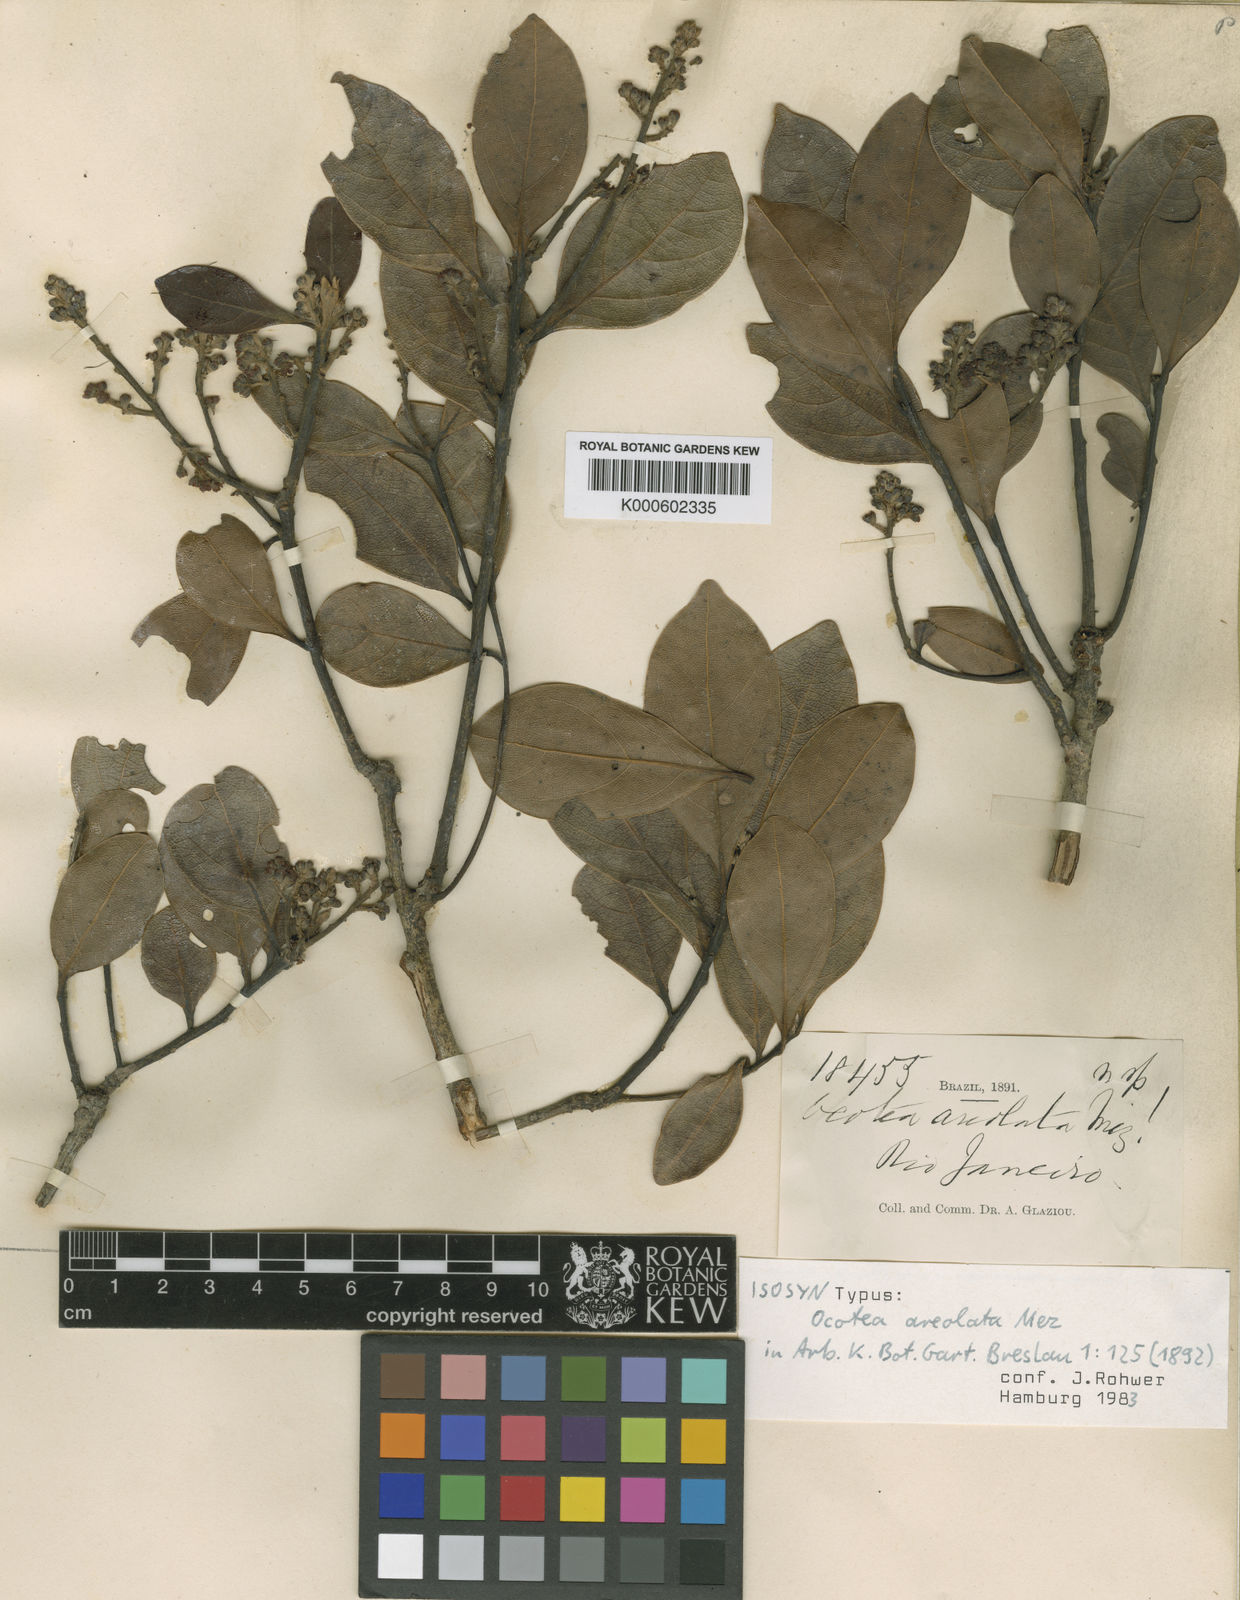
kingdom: Plantae
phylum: Tracheophyta
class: Magnoliopsida
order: Laurales
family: Lauraceae
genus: Mespilodaphne
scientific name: Mespilodaphne tristis
